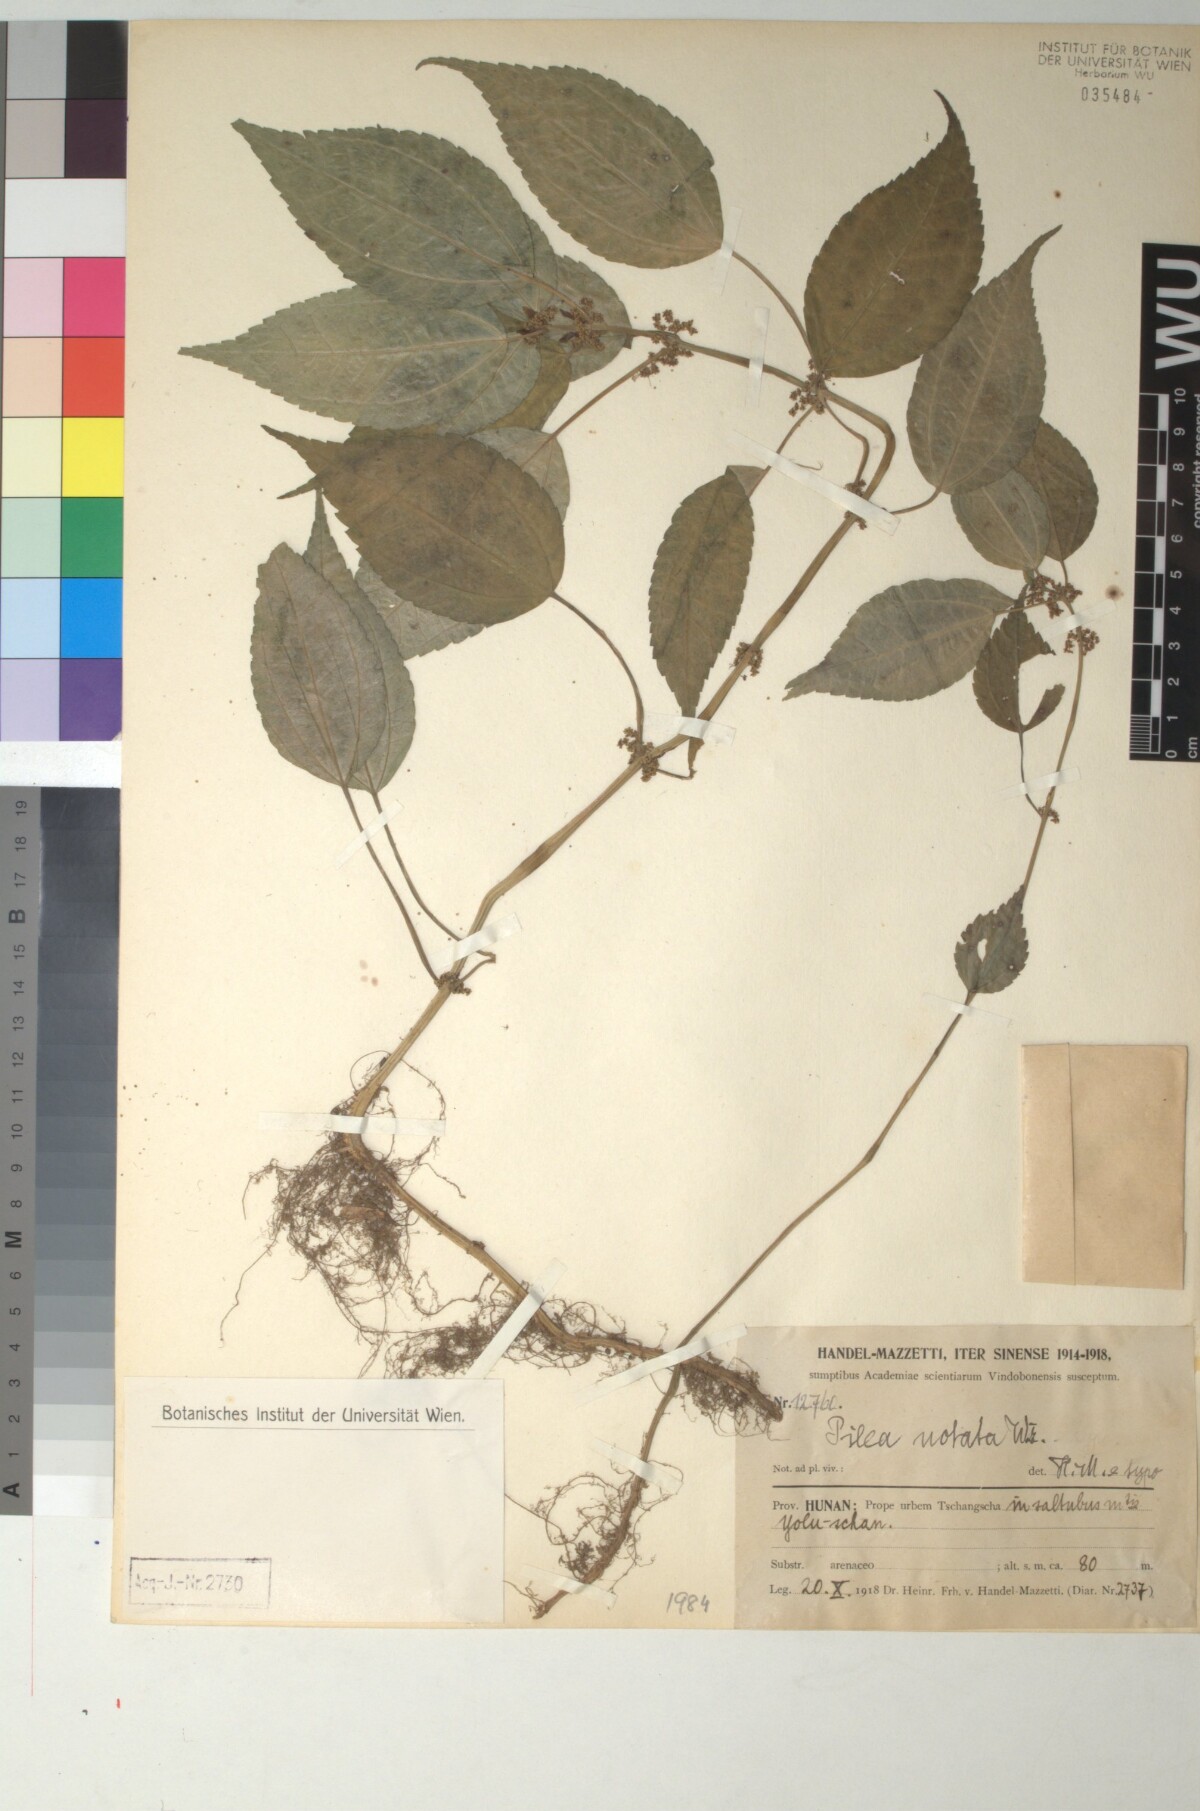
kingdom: Plantae
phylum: Tracheophyta
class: Magnoliopsida
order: Rosales
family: Urticaceae
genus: Pilea
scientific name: Pilea notata
